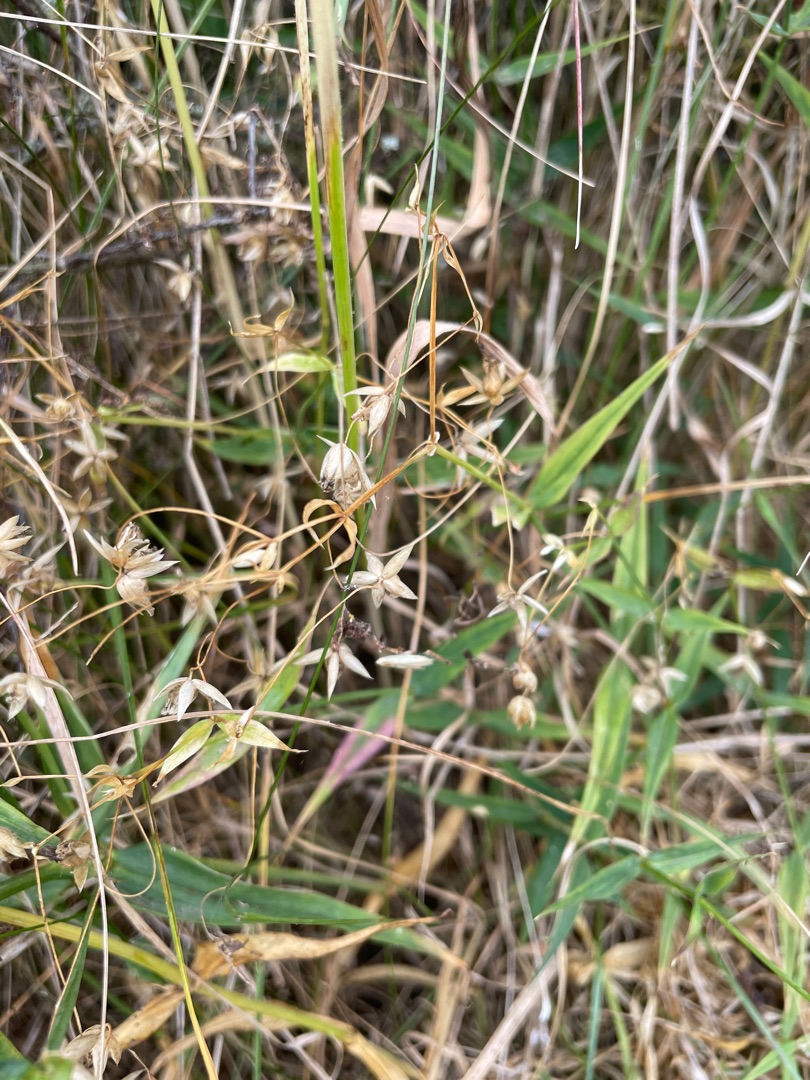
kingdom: Plantae
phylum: Tracheophyta
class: Magnoliopsida
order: Caryophyllales
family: Caryophyllaceae
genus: Rabelera
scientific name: Rabelera holostea
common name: Stor fladstjerne
